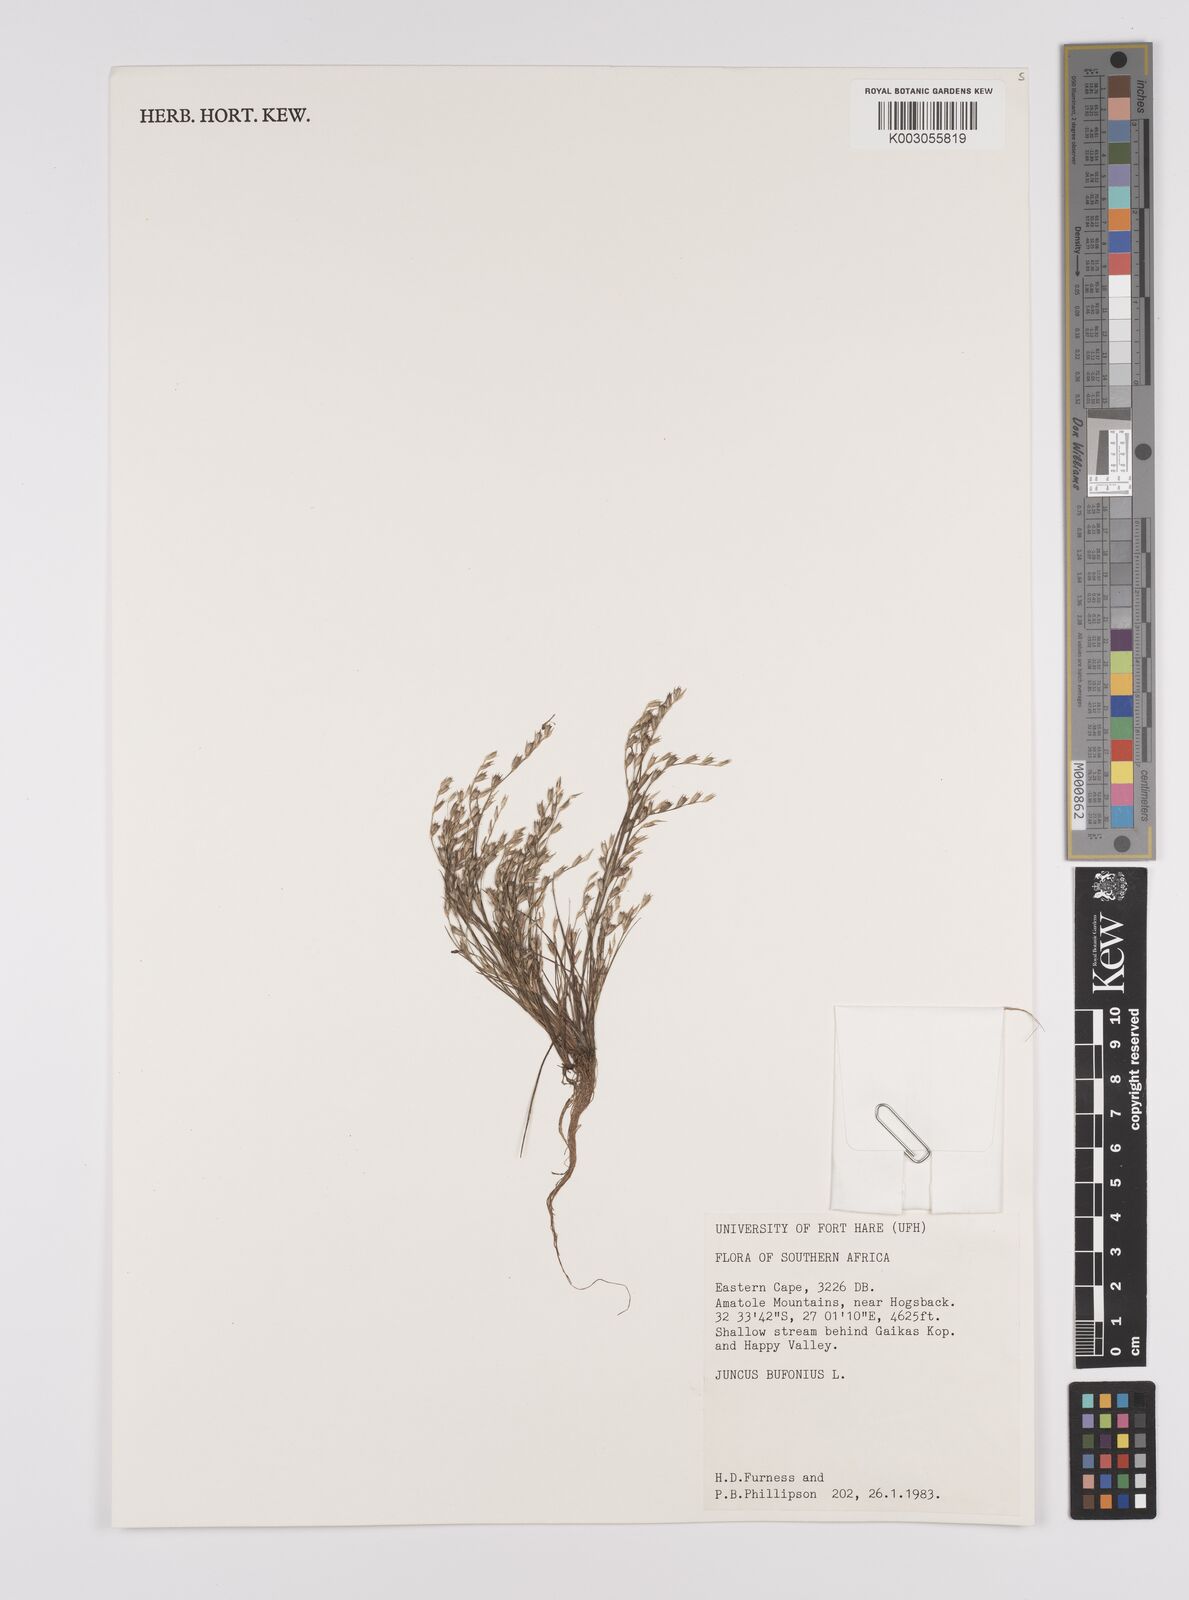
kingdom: Plantae
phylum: Tracheophyta
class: Liliopsida
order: Poales
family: Juncaceae
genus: Juncus
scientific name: Juncus bufonius
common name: Toad rush
